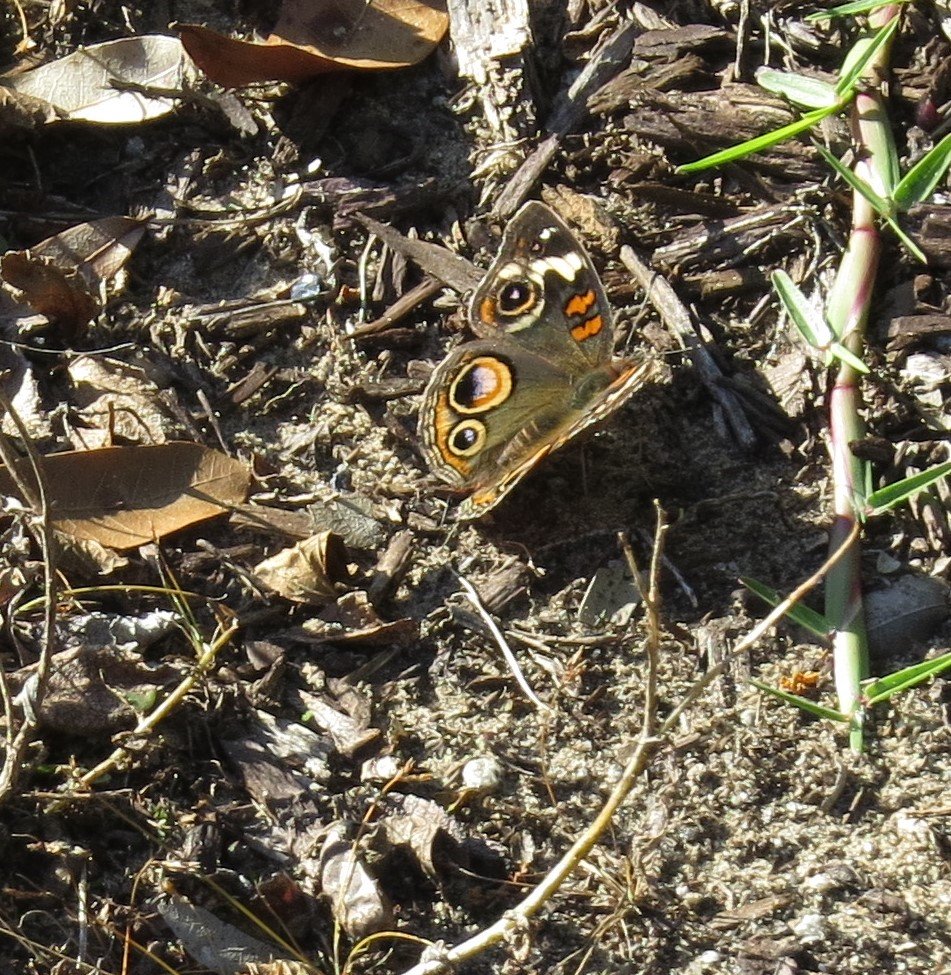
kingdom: Animalia
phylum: Arthropoda
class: Insecta
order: Lepidoptera
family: Nymphalidae
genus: Junonia
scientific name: Junonia coenia
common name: Common Buckeye
